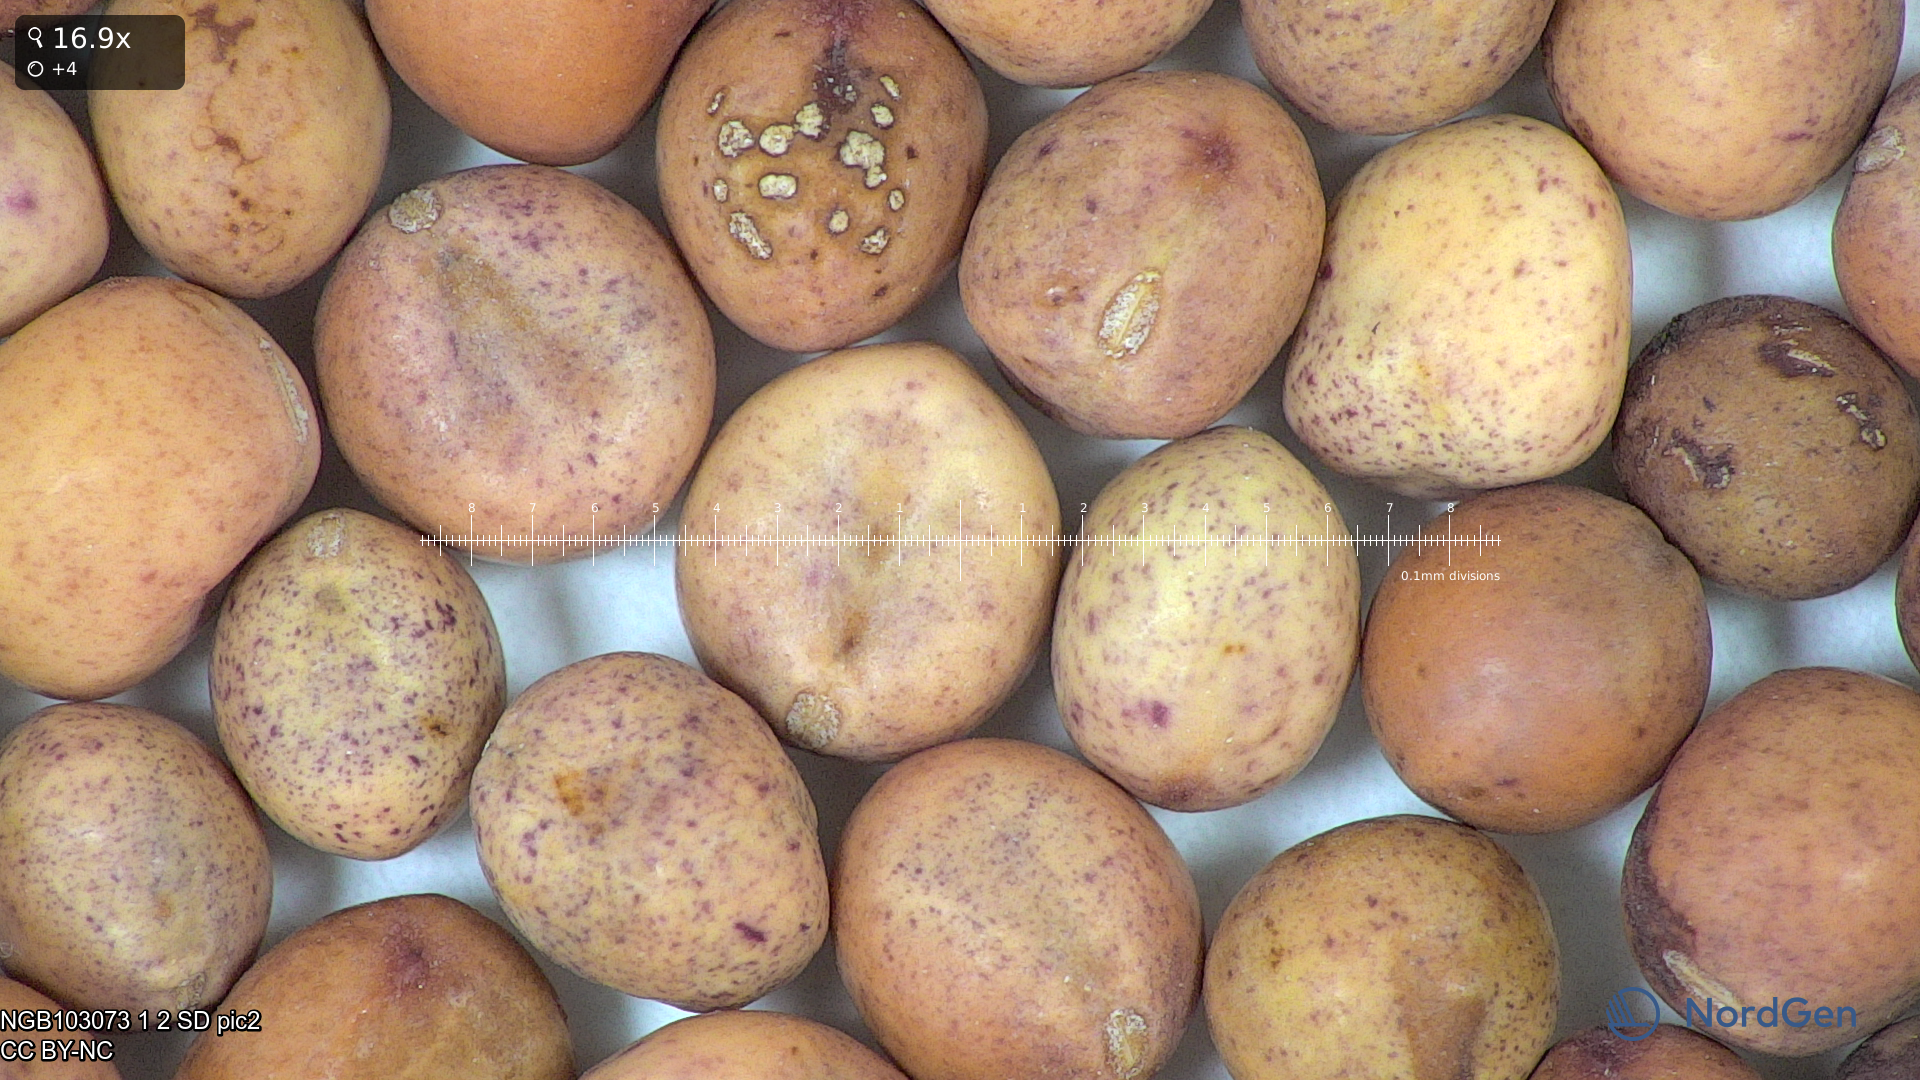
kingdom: Plantae
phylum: Tracheophyta
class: Magnoliopsida
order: Fabales
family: Fabaceae
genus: Lathyrus
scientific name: Lathyrus oleraceus
